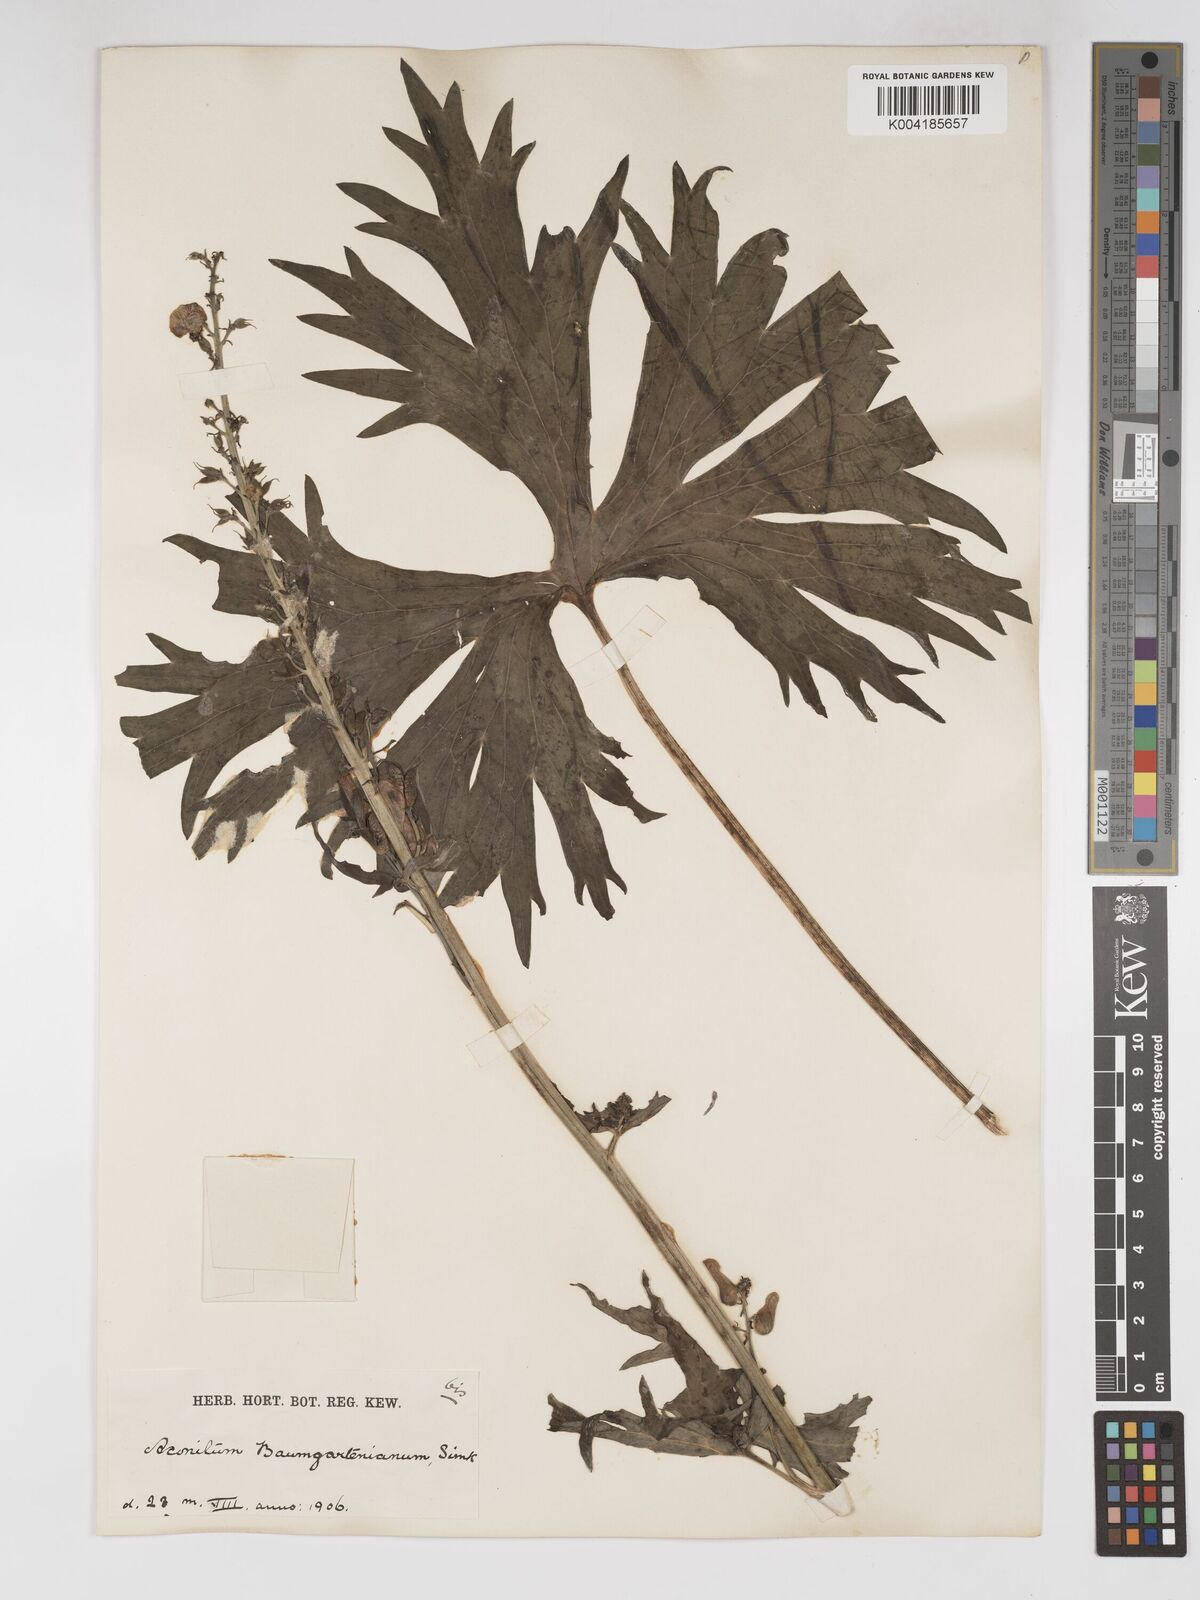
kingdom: Plantae
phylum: Tracheophyta
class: Magnoliopsida
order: Ranunculales
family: Ranunculaceae
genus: Aconitum
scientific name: Aconitum lycoctonum
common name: Wolf's-bane
